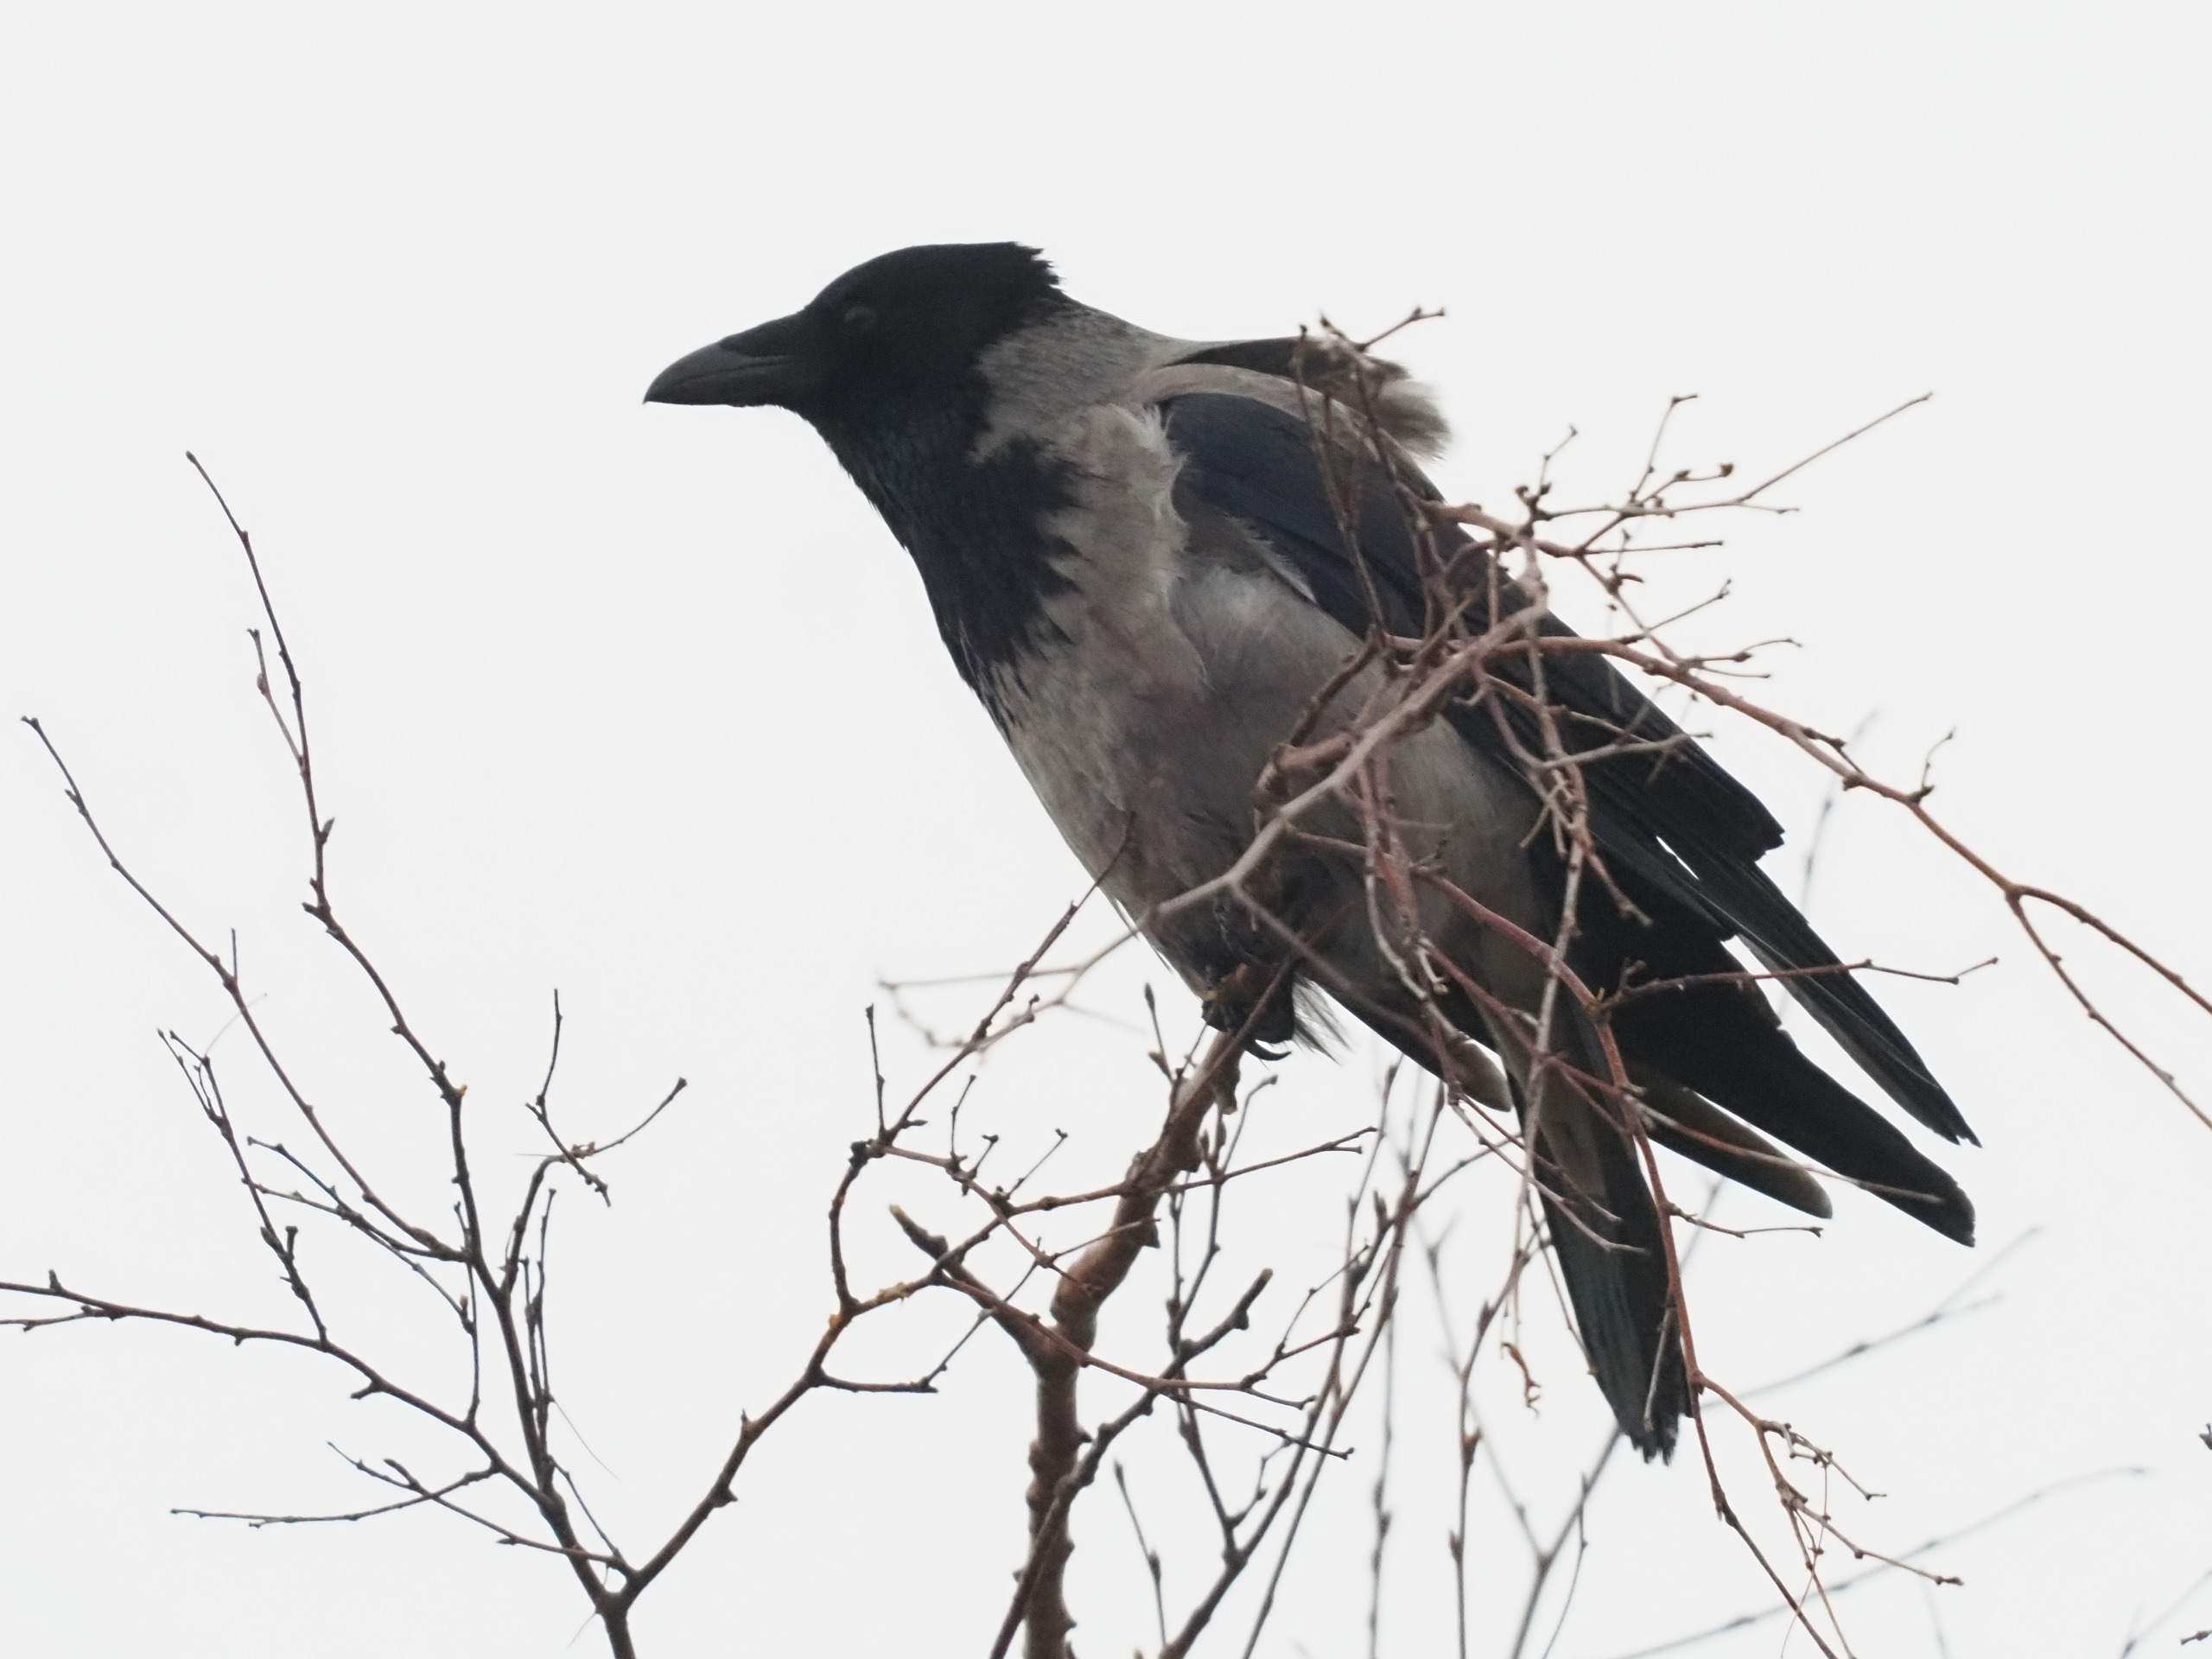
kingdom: Animalia
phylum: Chordata
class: Aves
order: Passeriformes
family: Corvidae
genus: Corvus
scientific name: Corvus cornix
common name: Gråkrage
